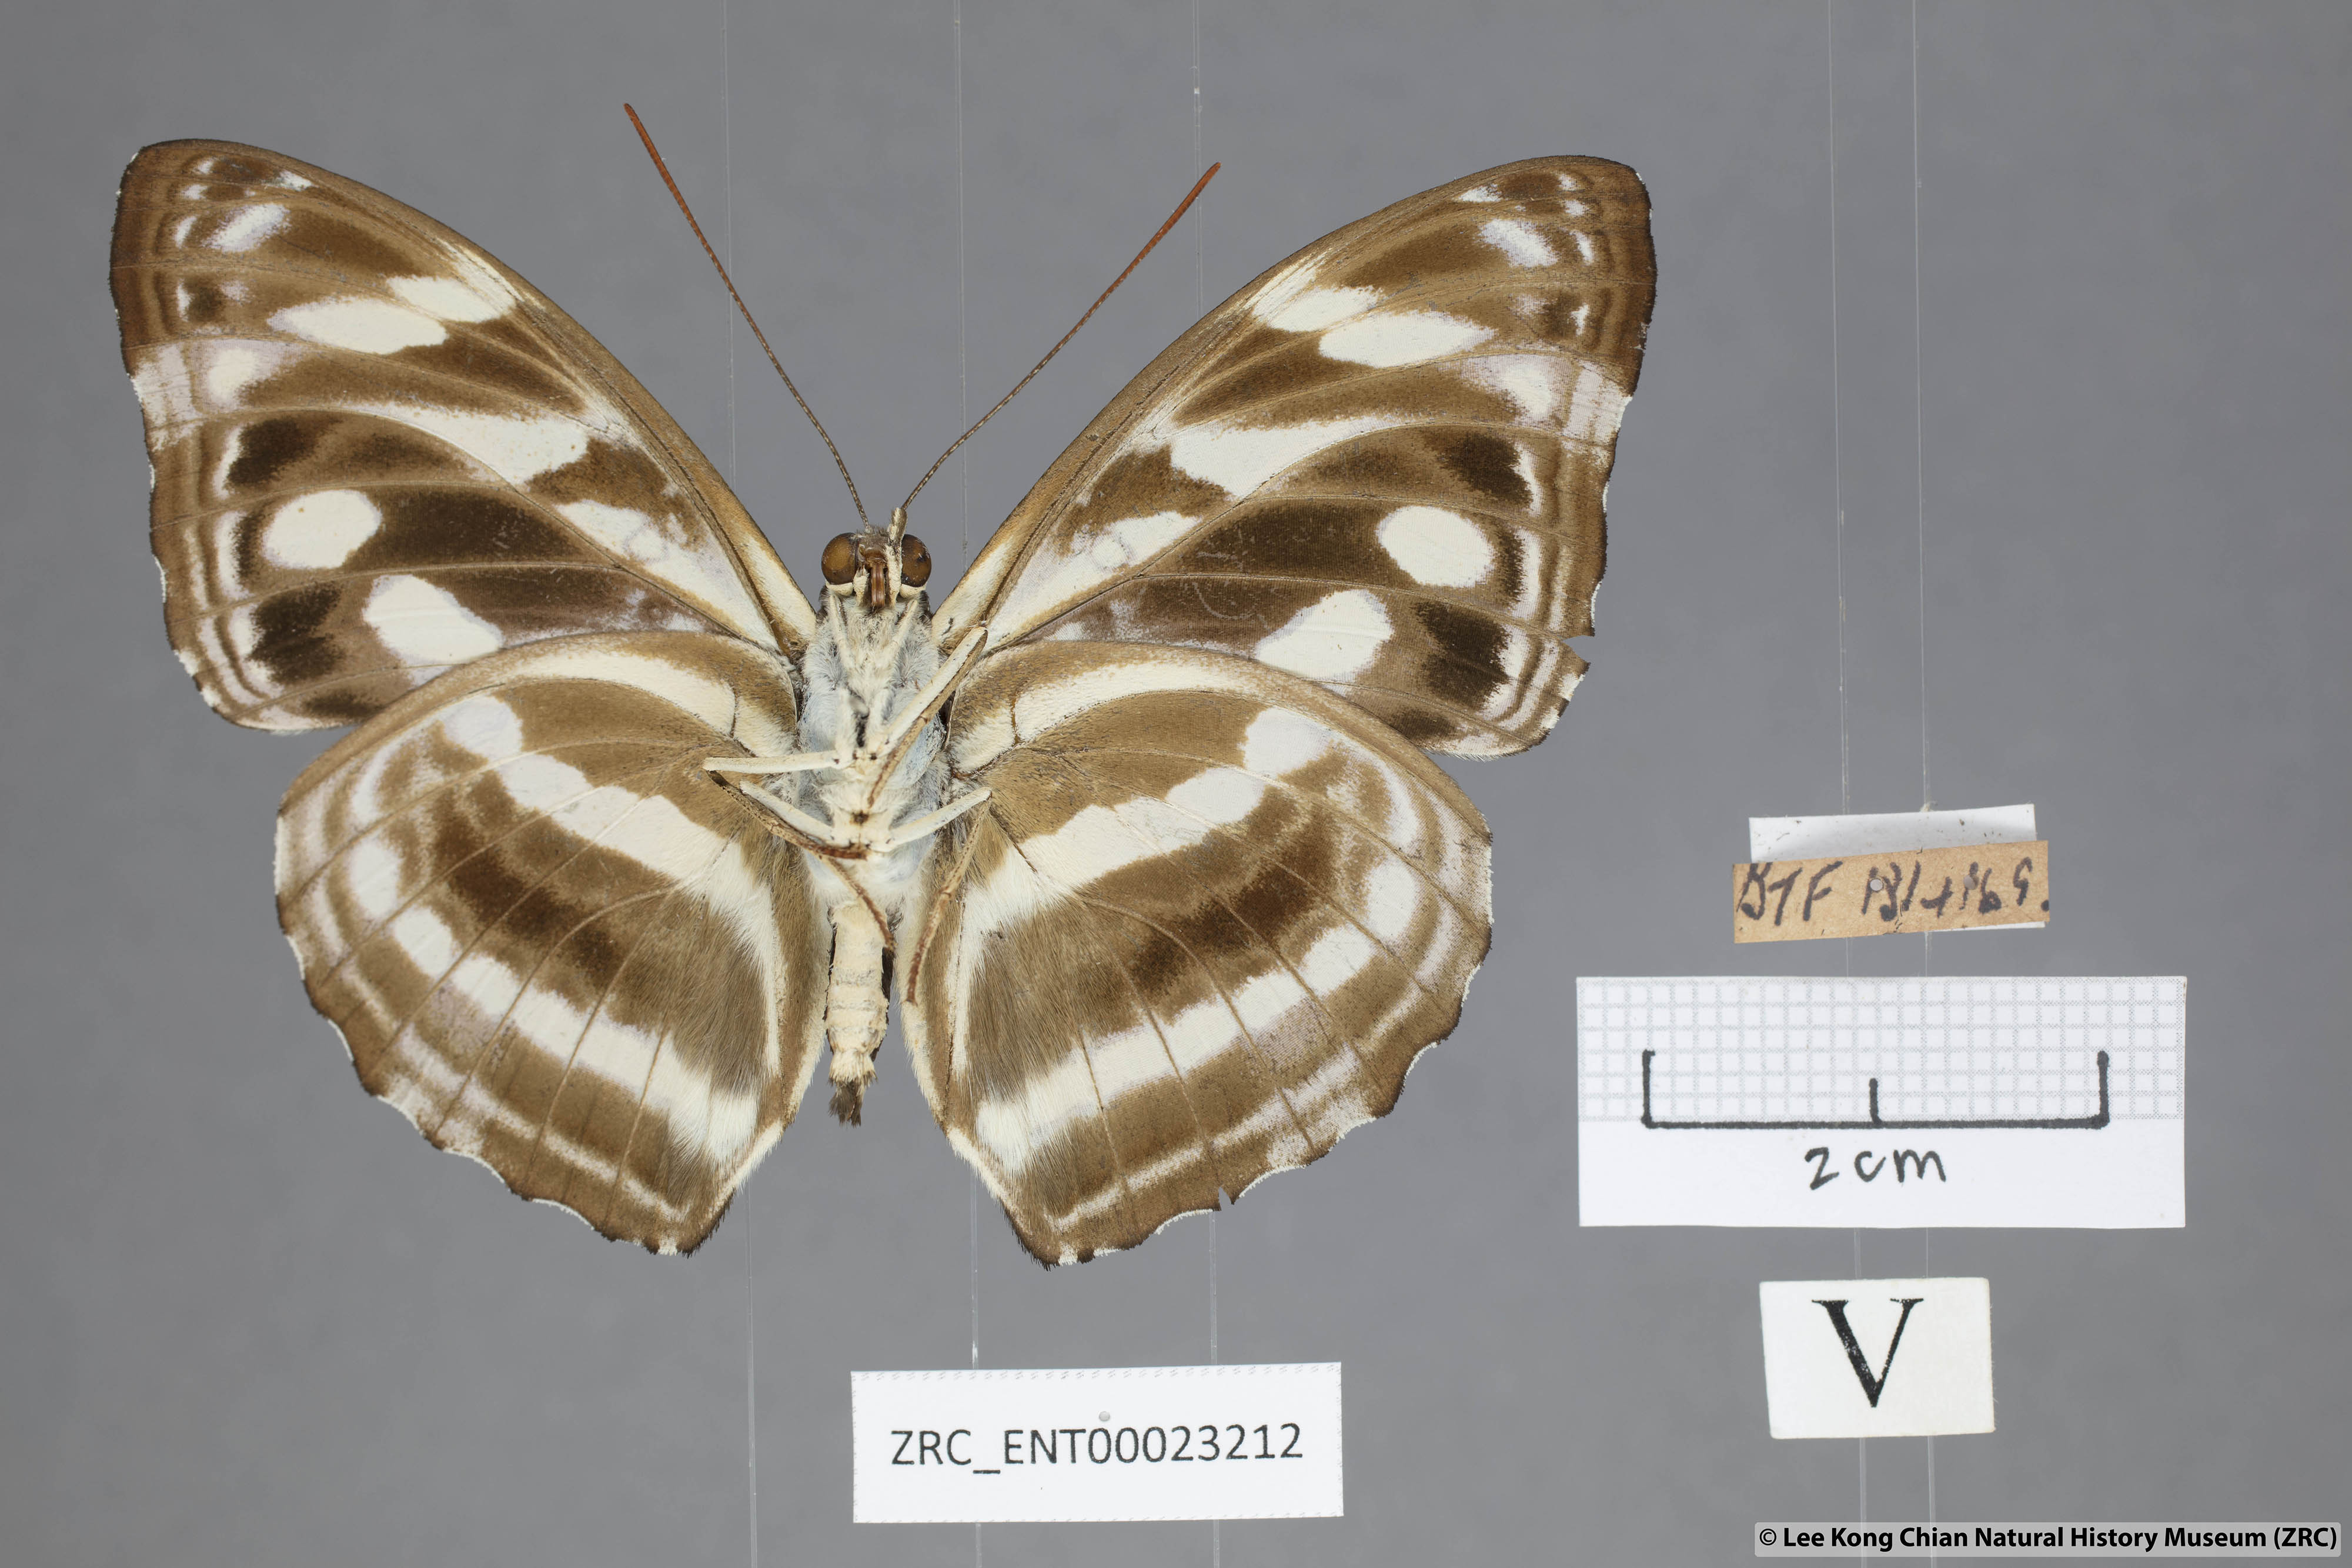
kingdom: Animalia
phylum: Arthropoda
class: Insecta
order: Lepidoptera
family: Nymphalidae
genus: Pantoporia
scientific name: Pantoporia larymna
